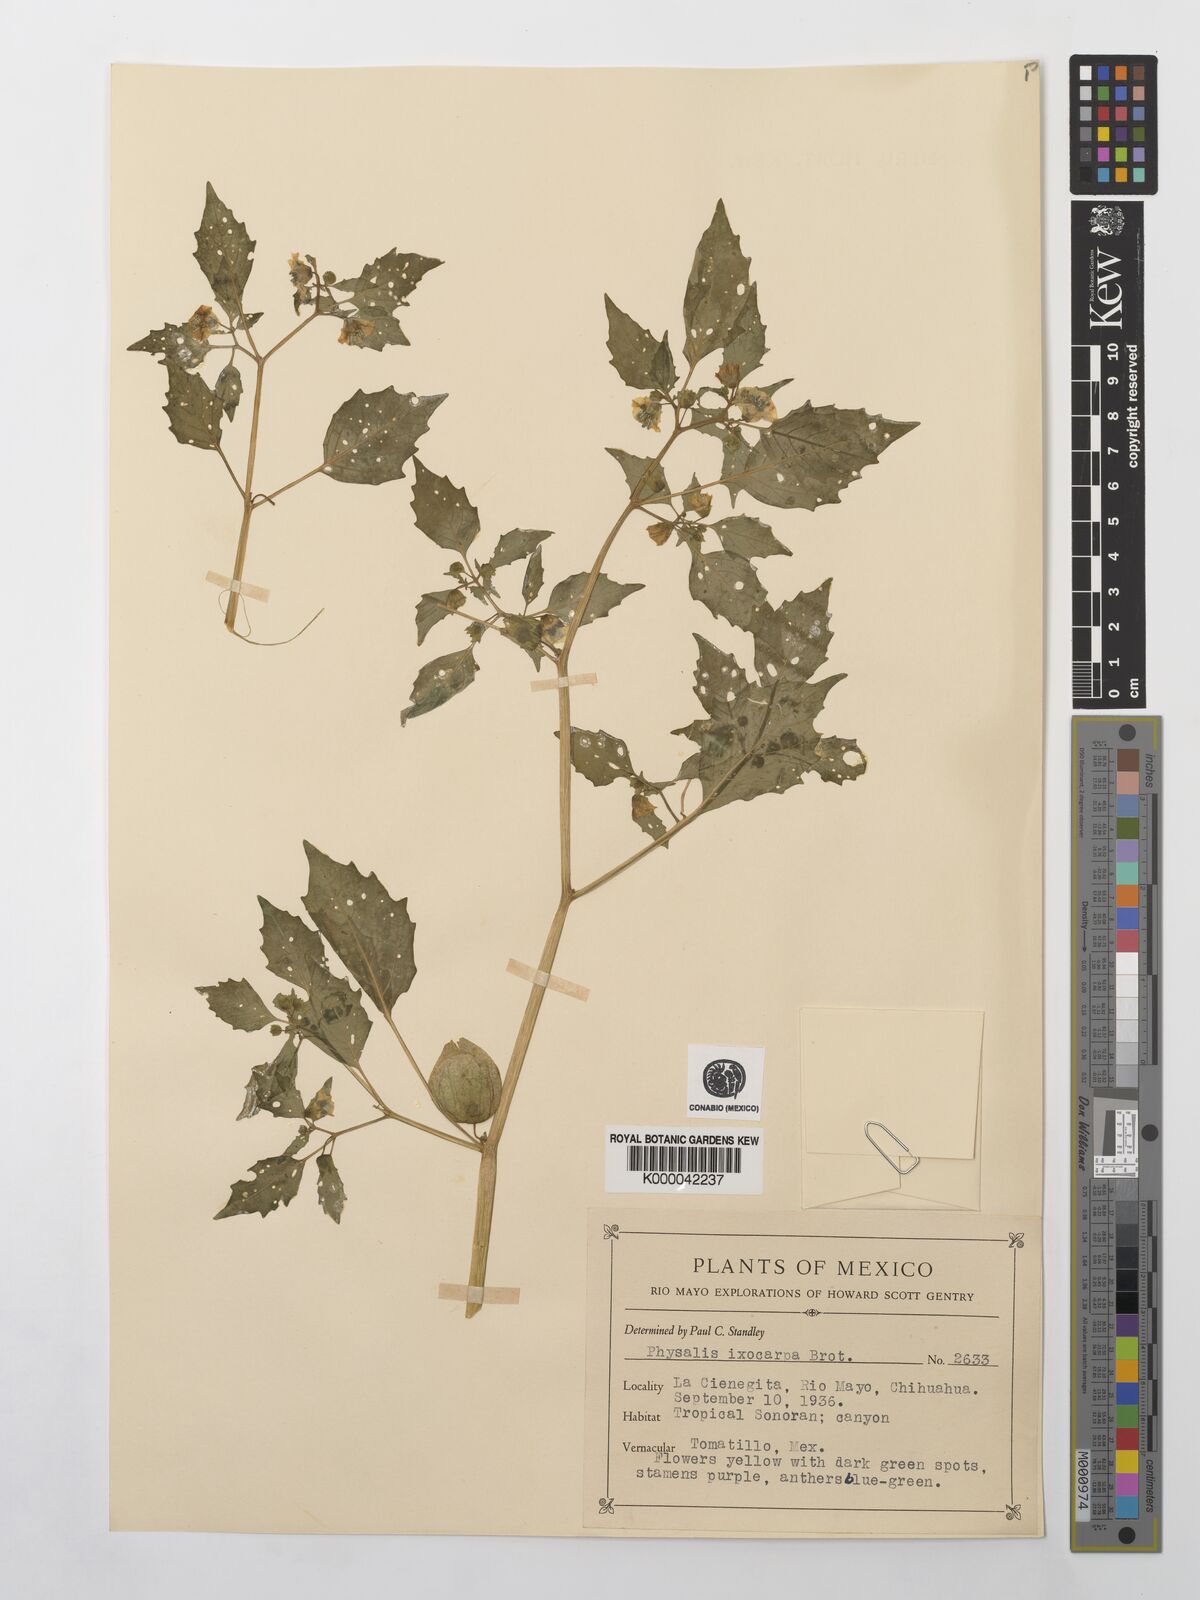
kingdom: Plantae
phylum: Tracheophyta
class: Magnoliopsida
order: Solanales
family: Solanaceae
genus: Physalis
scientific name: Physalis philadelphica
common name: Husk-tomato
